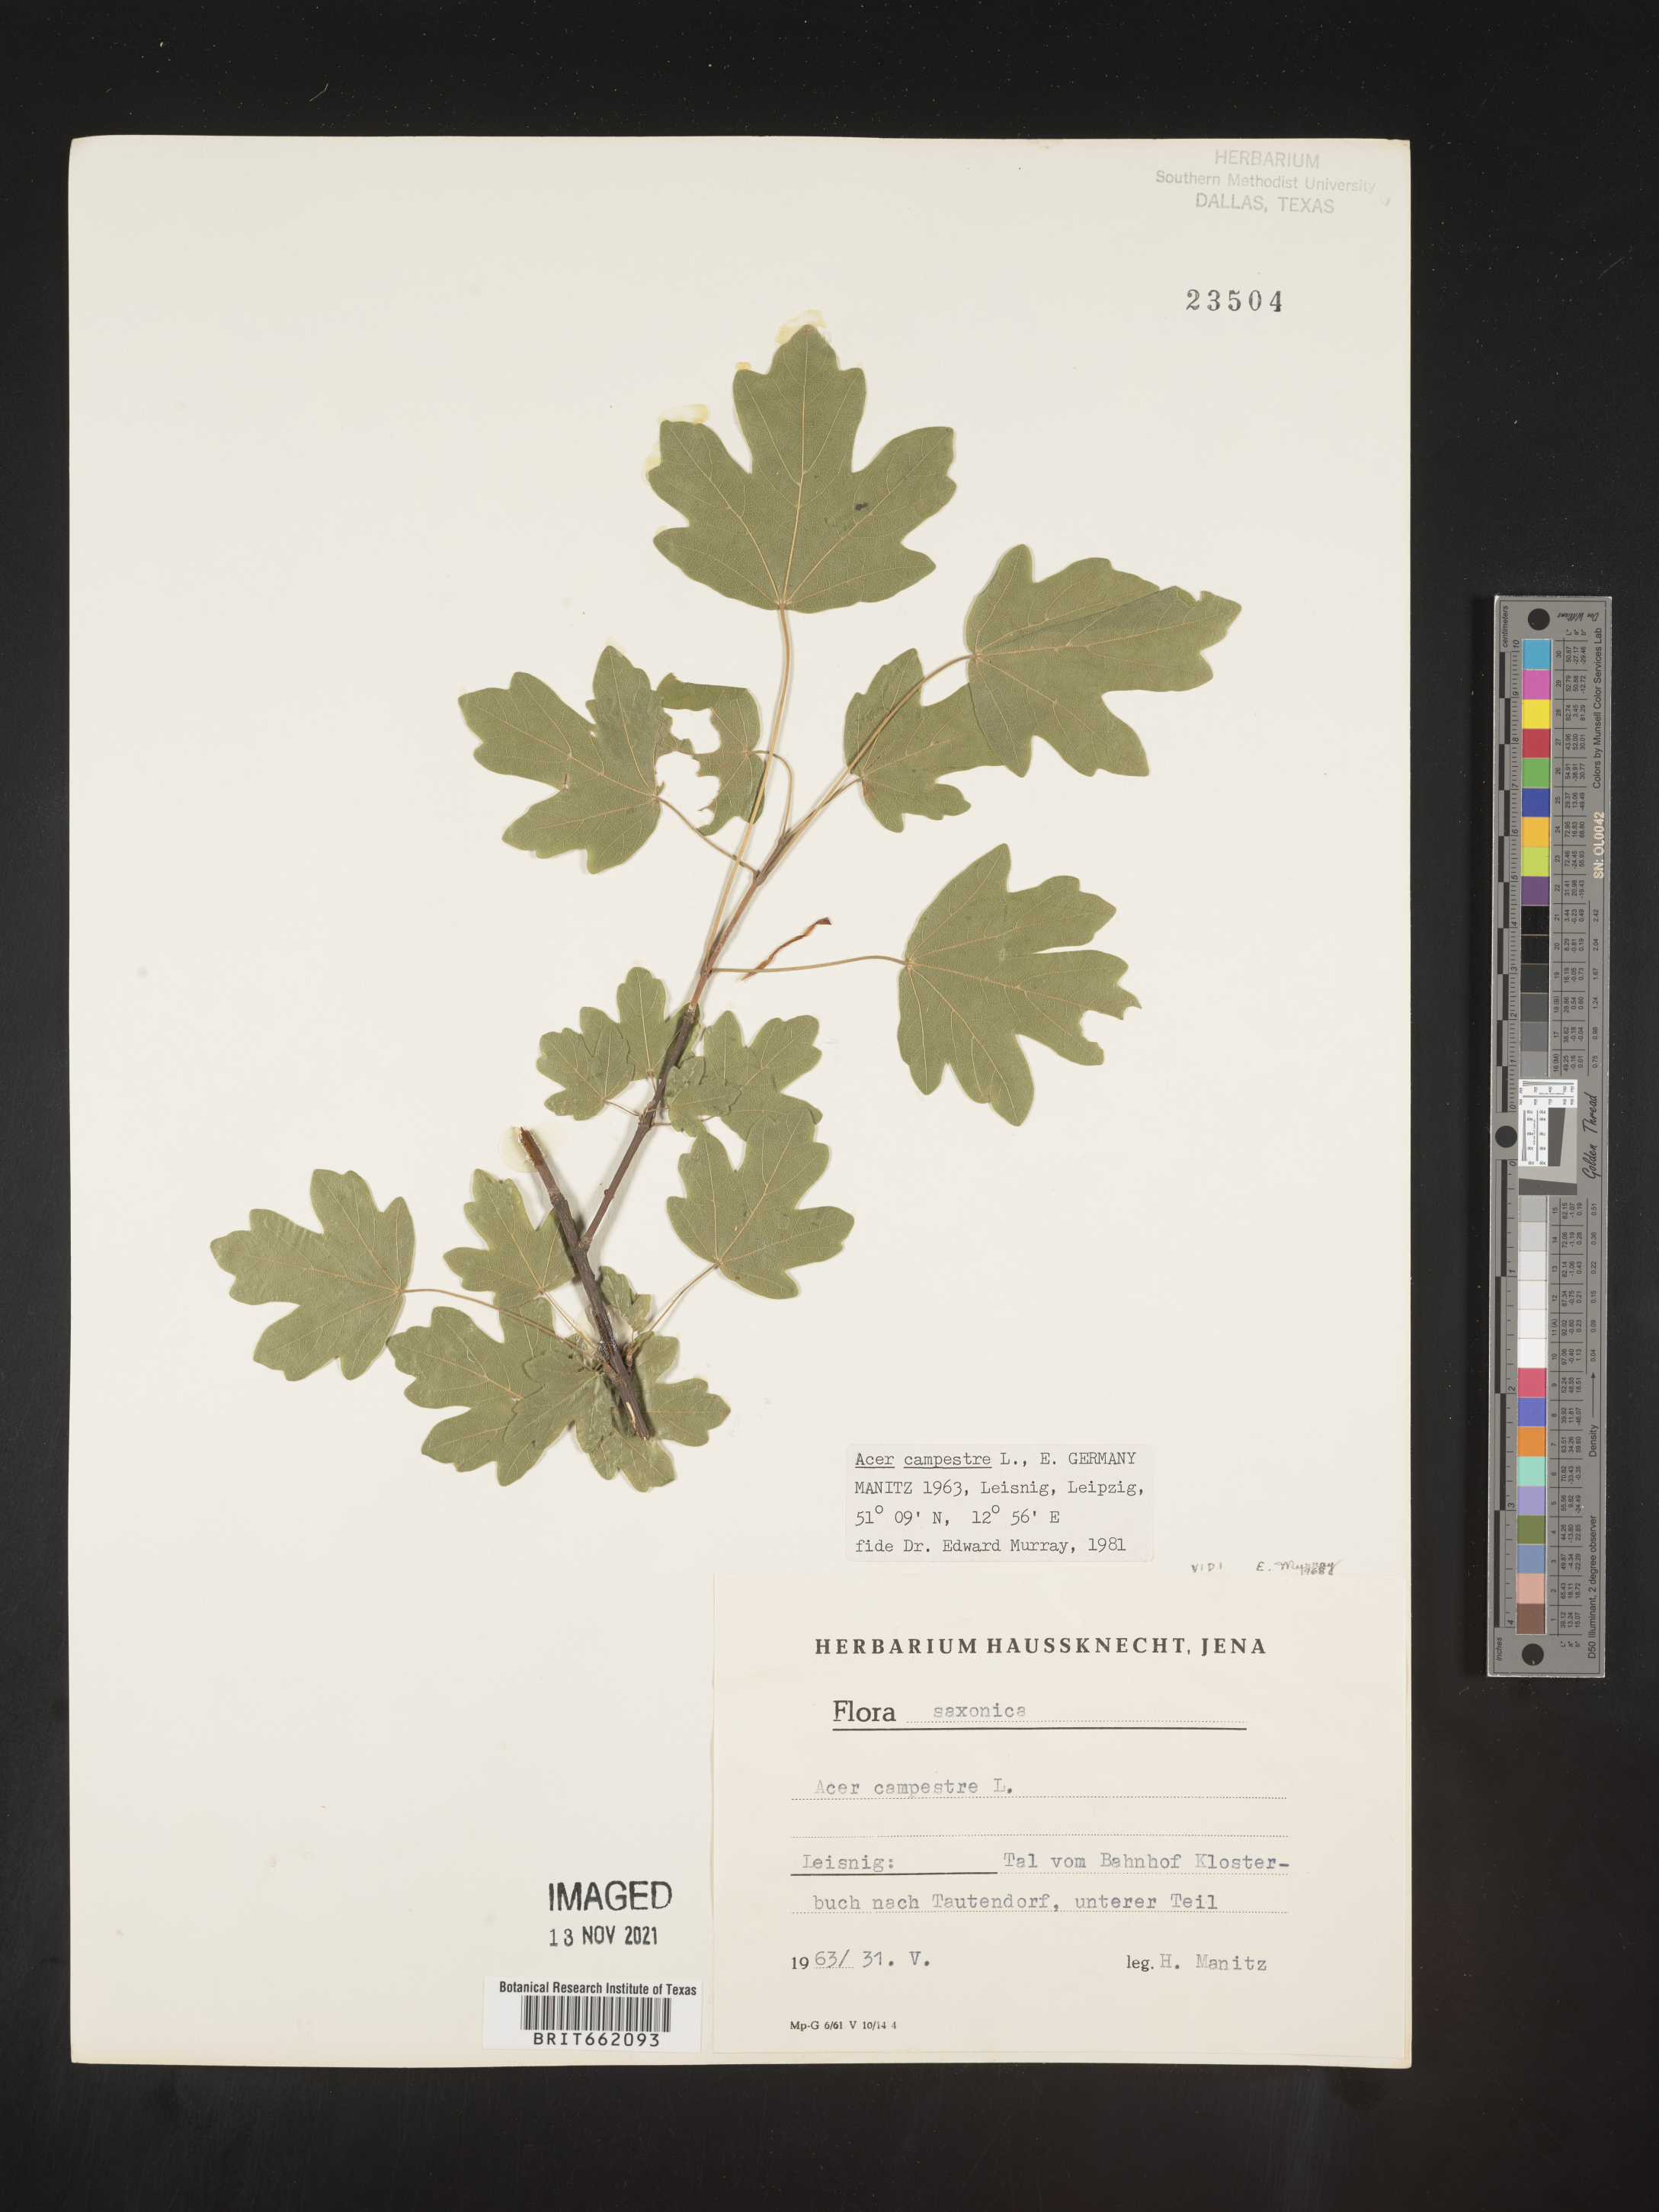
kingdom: Plantae
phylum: Tracheophyta
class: Magnoliopsida
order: Sapindales
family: Sapindaceae
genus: Acer
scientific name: Acer
